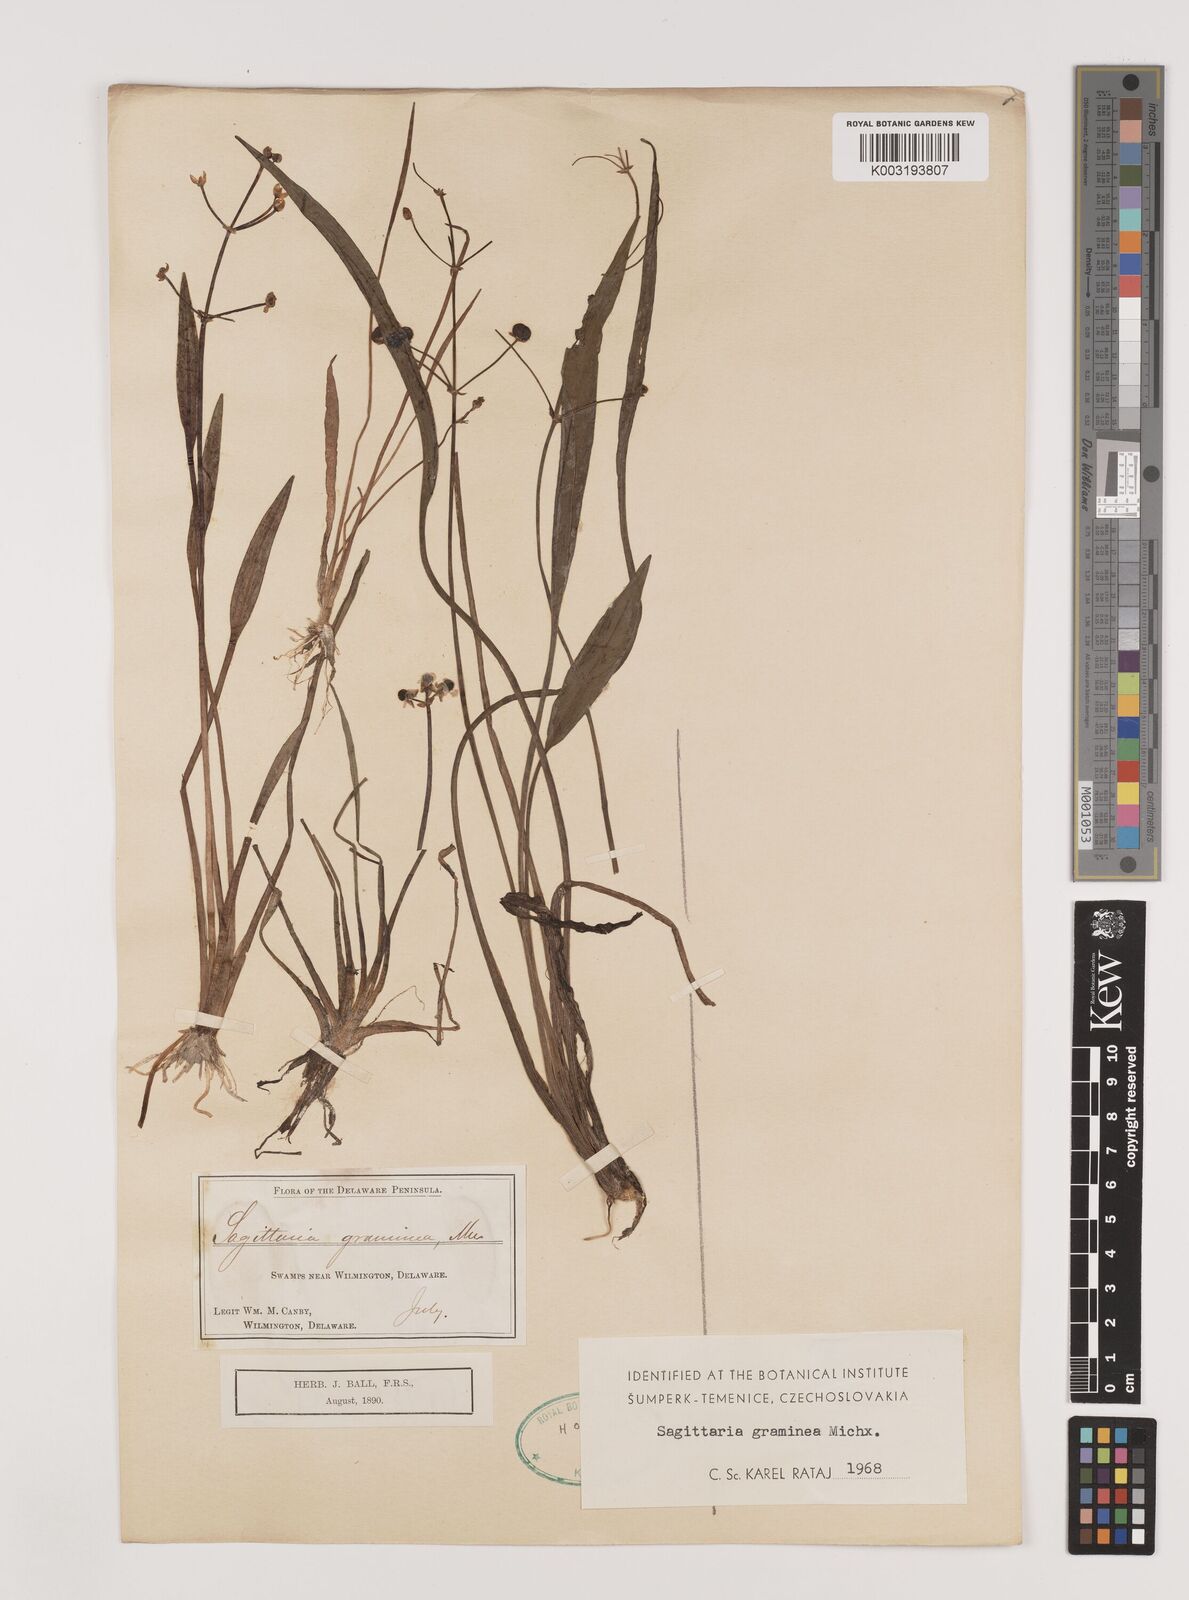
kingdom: Plantae
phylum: Tracheophyta
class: Liliopsida
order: Alismatales
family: Alismataceae
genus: Sagittaria
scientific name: Sagittaria graminea
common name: Grass-leaved arrowhead
